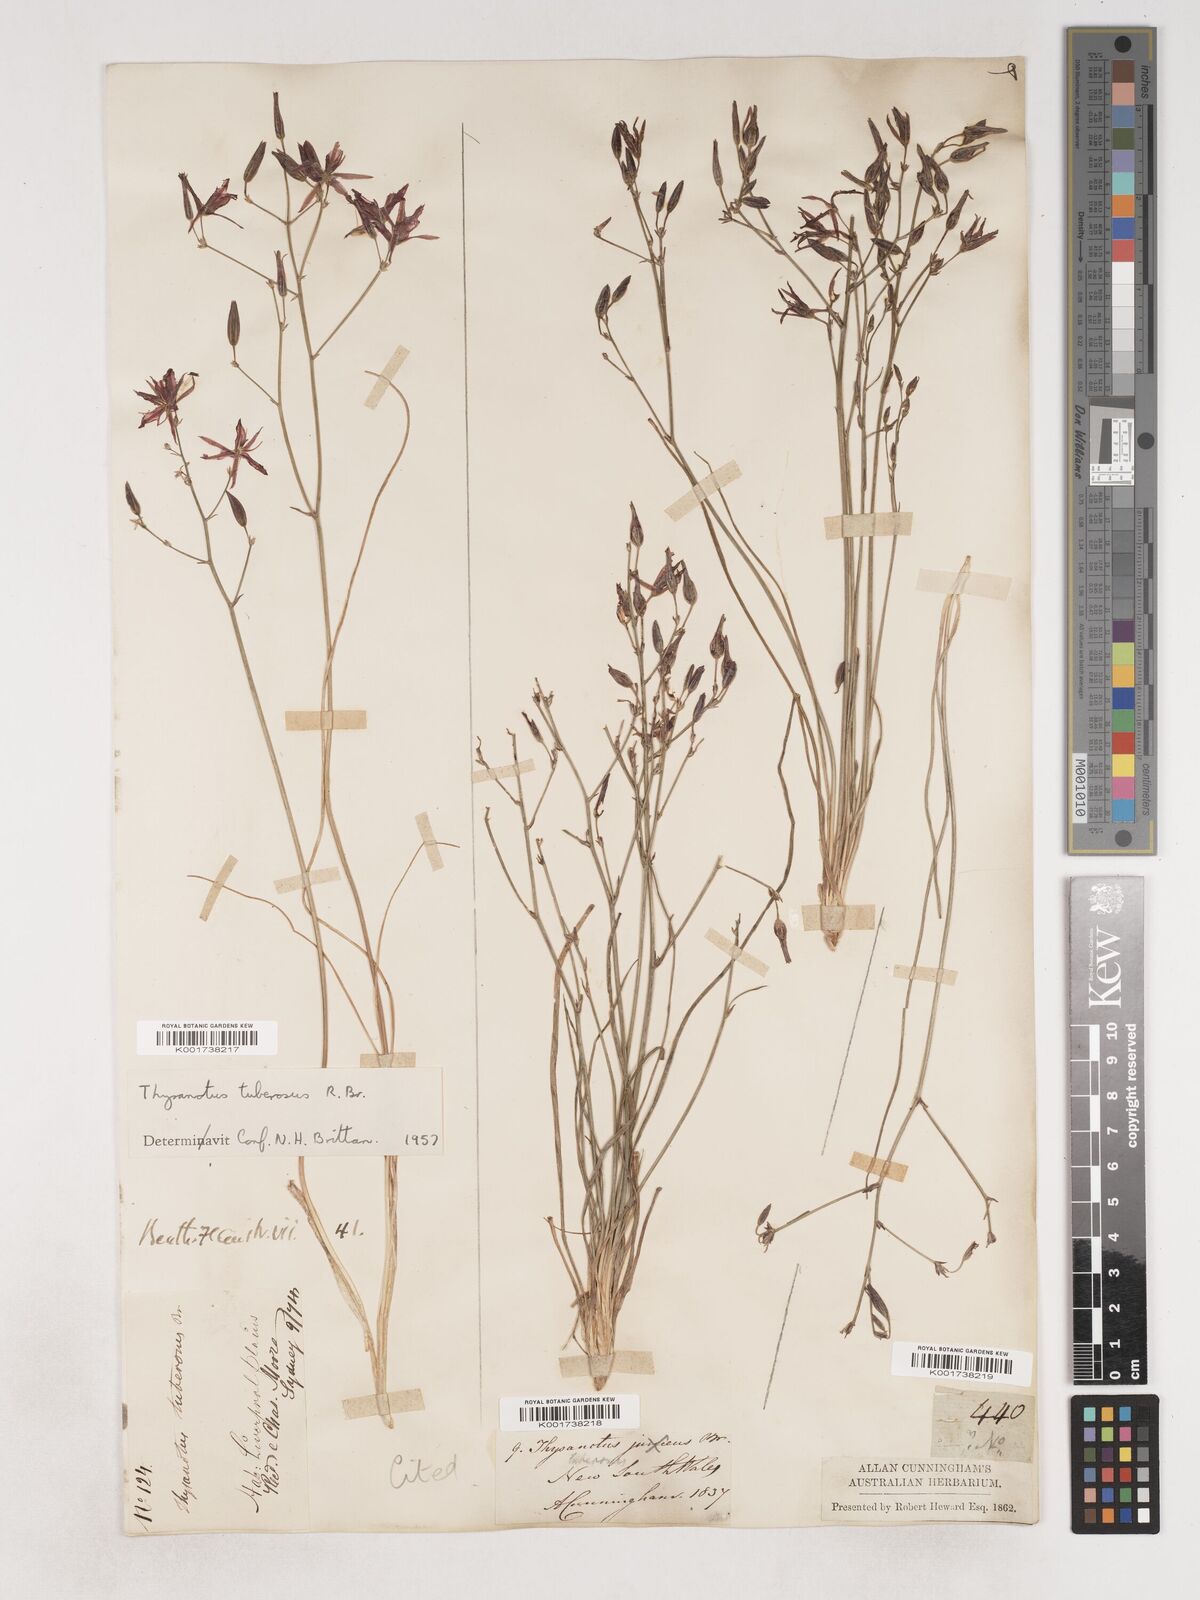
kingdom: Plantae
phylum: Tracheophyta
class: Liliopsida
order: Asparagales
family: Asparagaceae
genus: Thysanotus
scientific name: Thysanotus tuberosus
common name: Common fringed-lily
